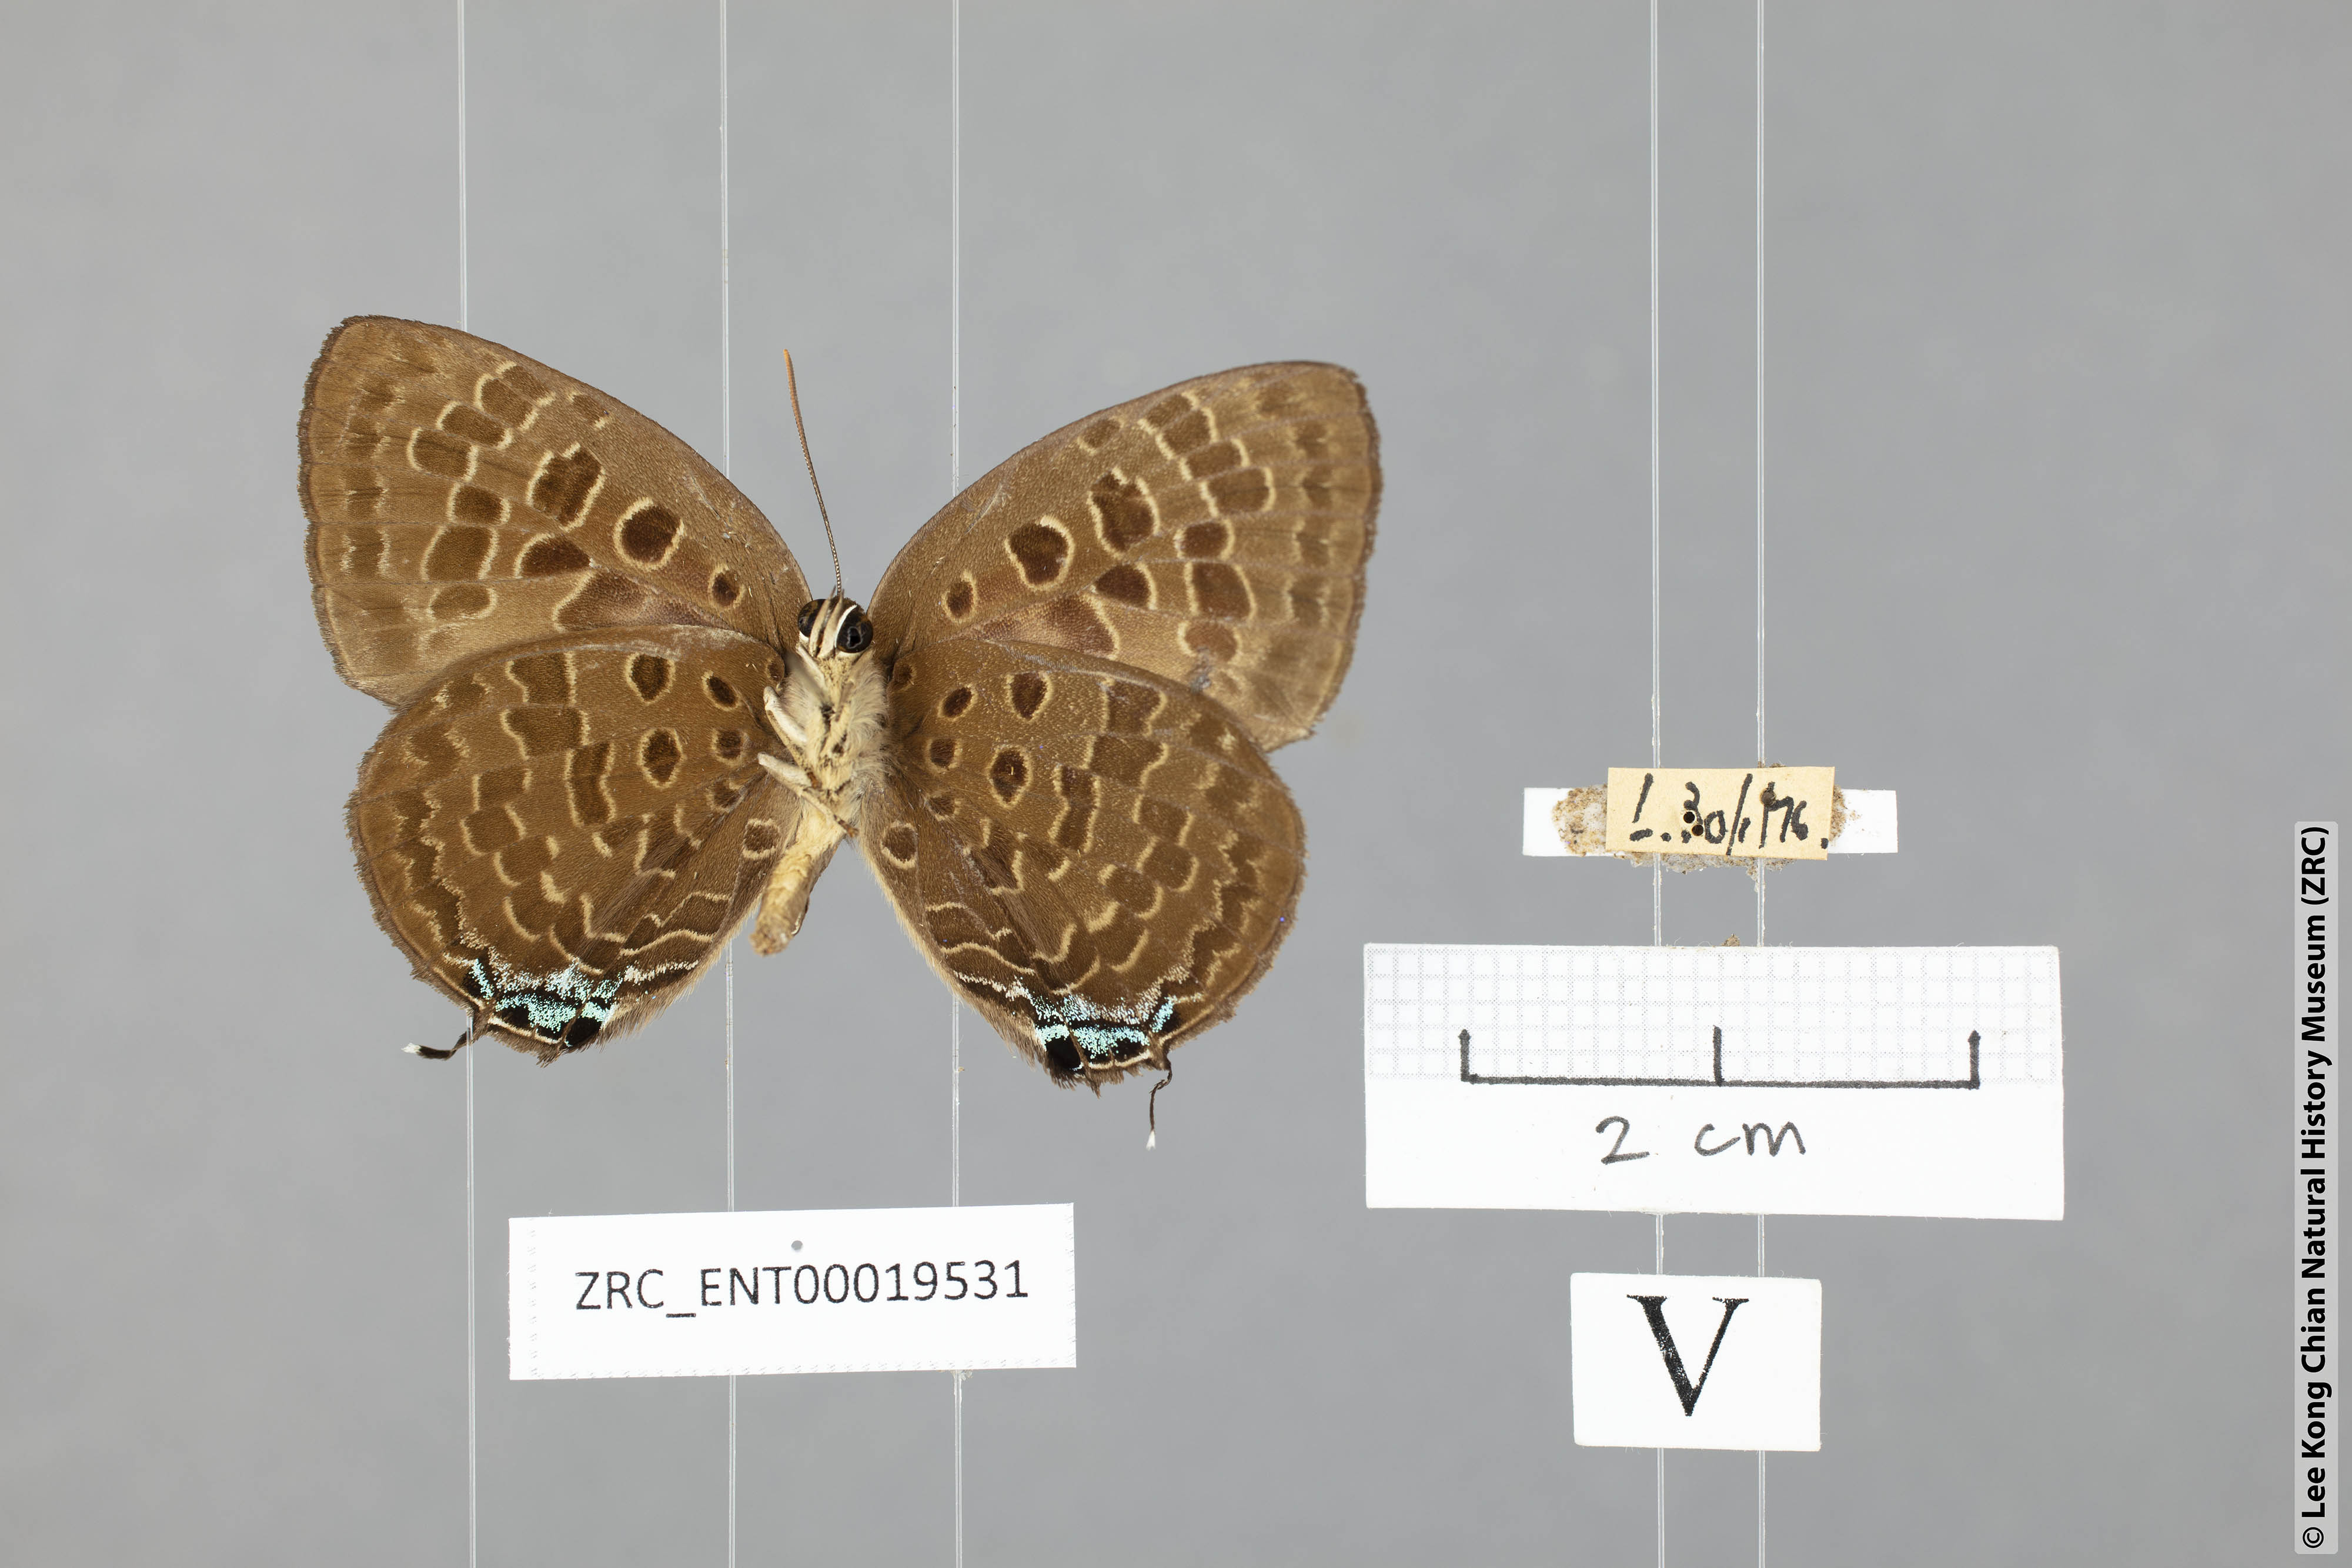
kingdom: Animalia
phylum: Arthropoda
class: Insecta
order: Lepidoptera
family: Lycaenidae
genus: Arhopala
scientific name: Arhopala horsfieldi
